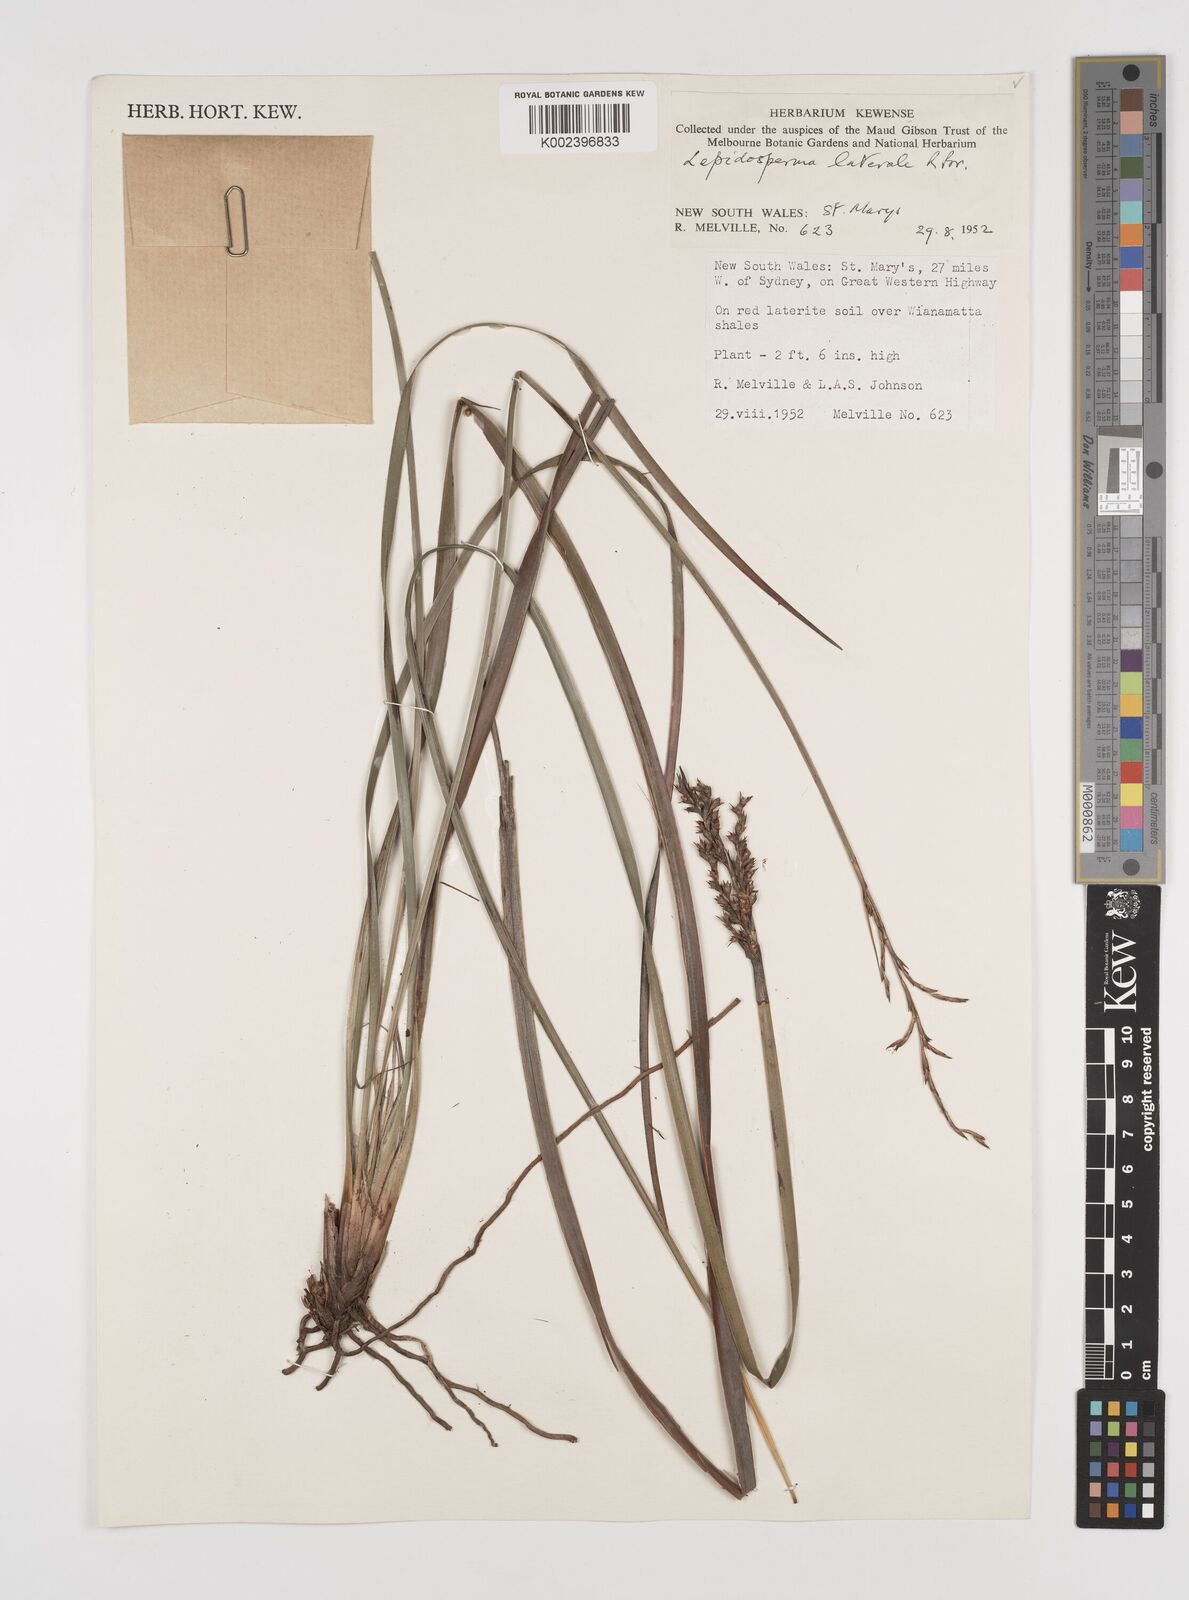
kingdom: Plantae
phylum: Tracheophyta
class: Liliopsida
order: Poales
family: Cyperaceae
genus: Lepidosperma
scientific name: Lepidosperma laterale
